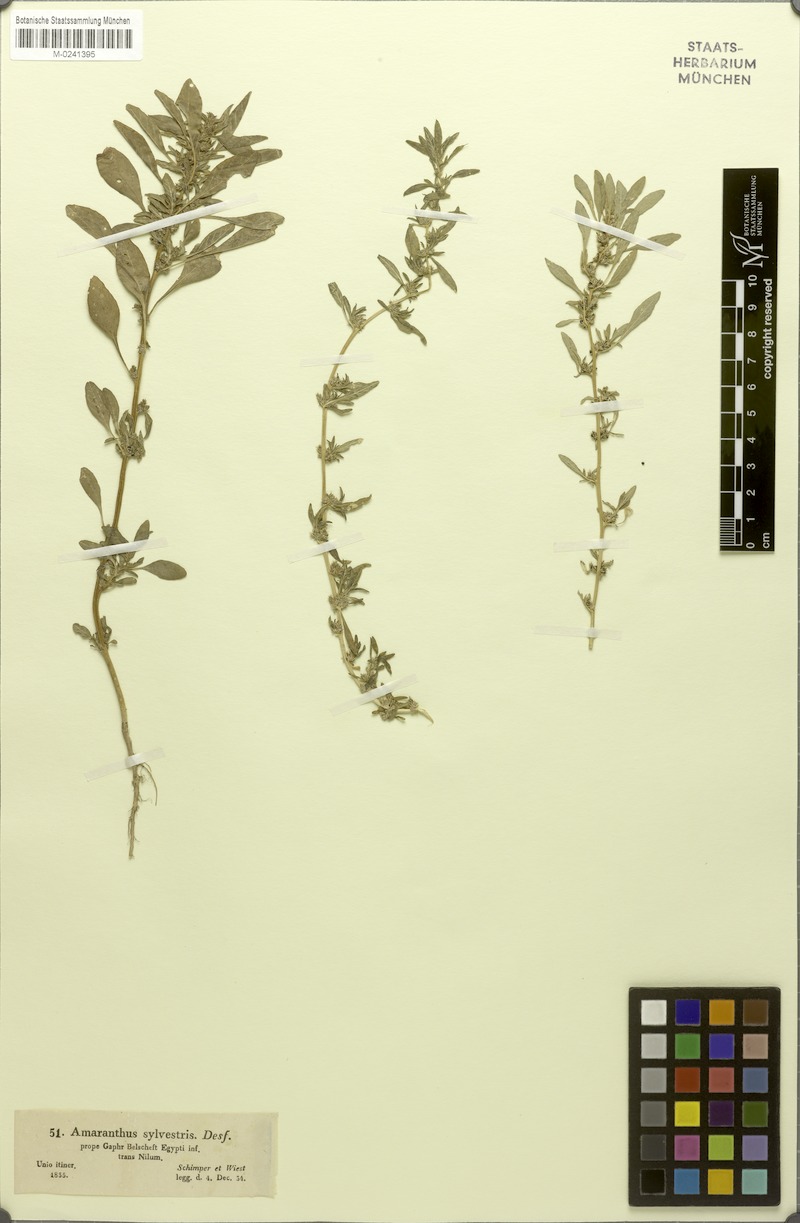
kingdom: Plantae
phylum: Tracheophyta
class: Magnoliopsida
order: Caryophyllales
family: Amaranthaceae
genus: Amaranthus
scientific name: Amaranthus graecizans
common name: Mediterranean amaranth
